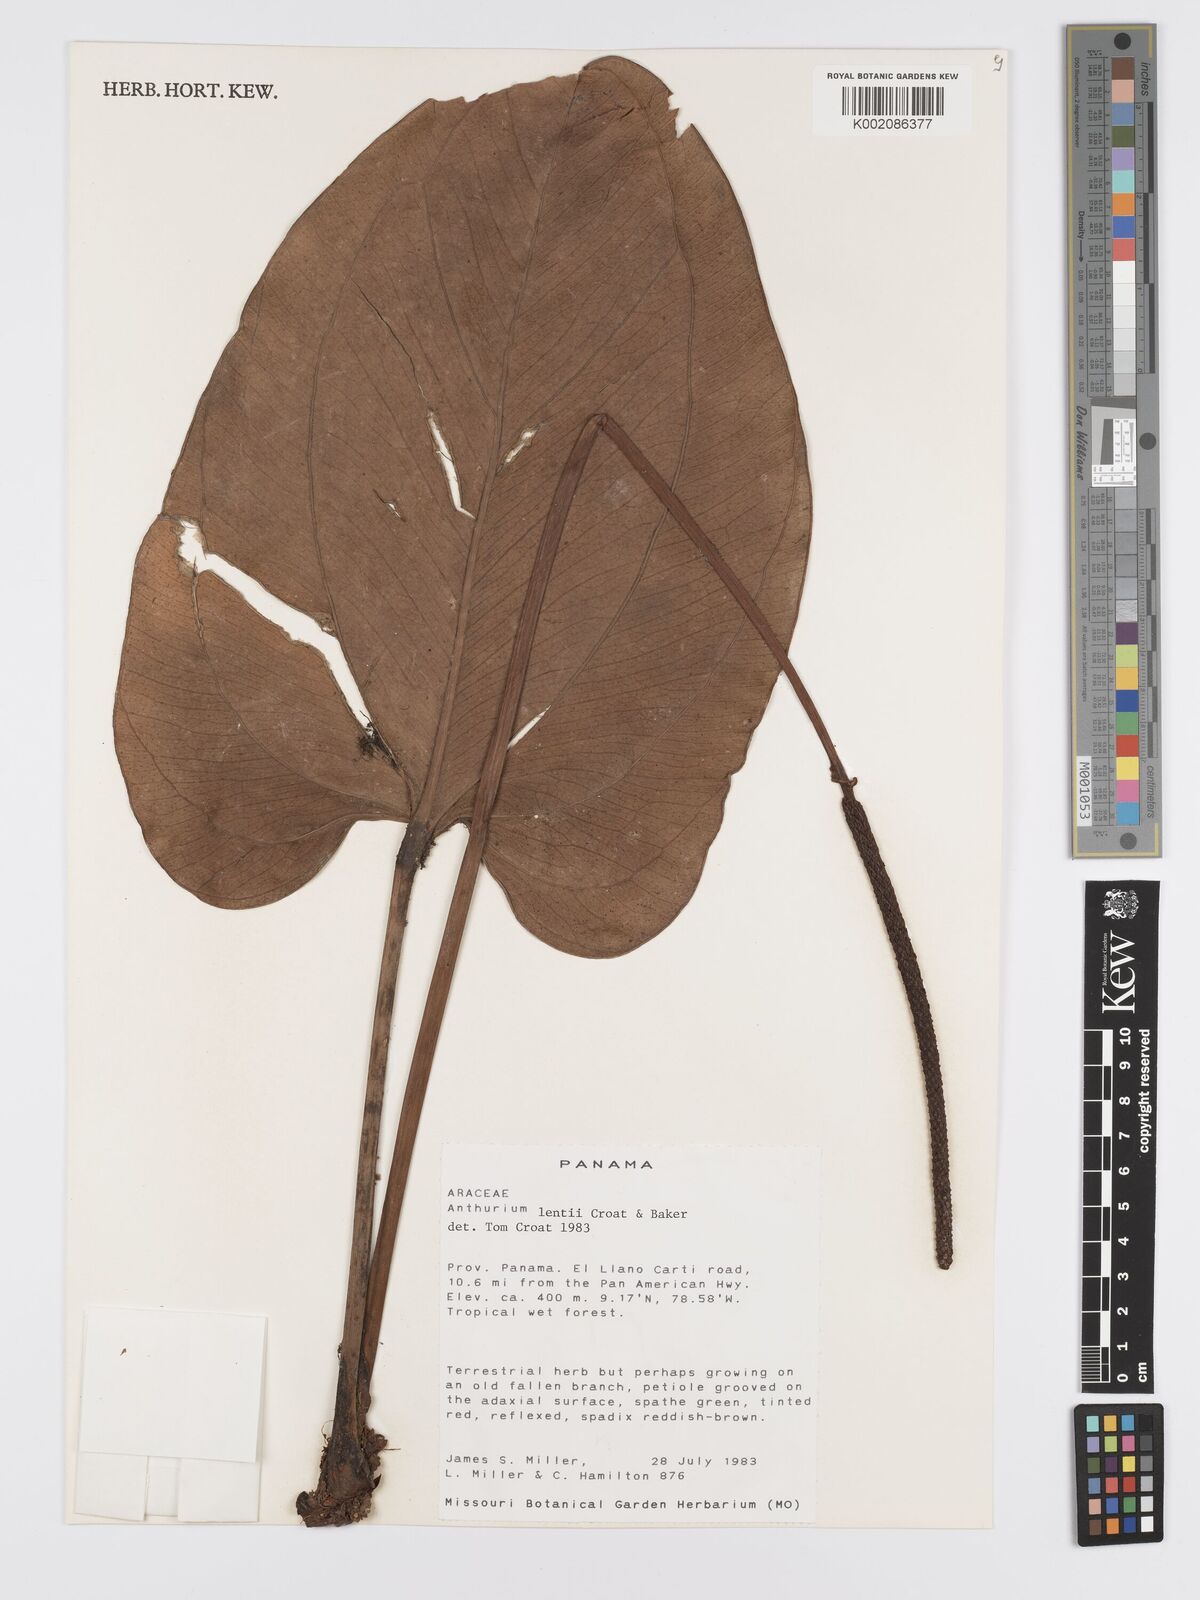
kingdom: Plantae
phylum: Tracheophyta
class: Liliopsida
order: Alismatales
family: Araceae
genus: Anthurium
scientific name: Anthurium lentii
